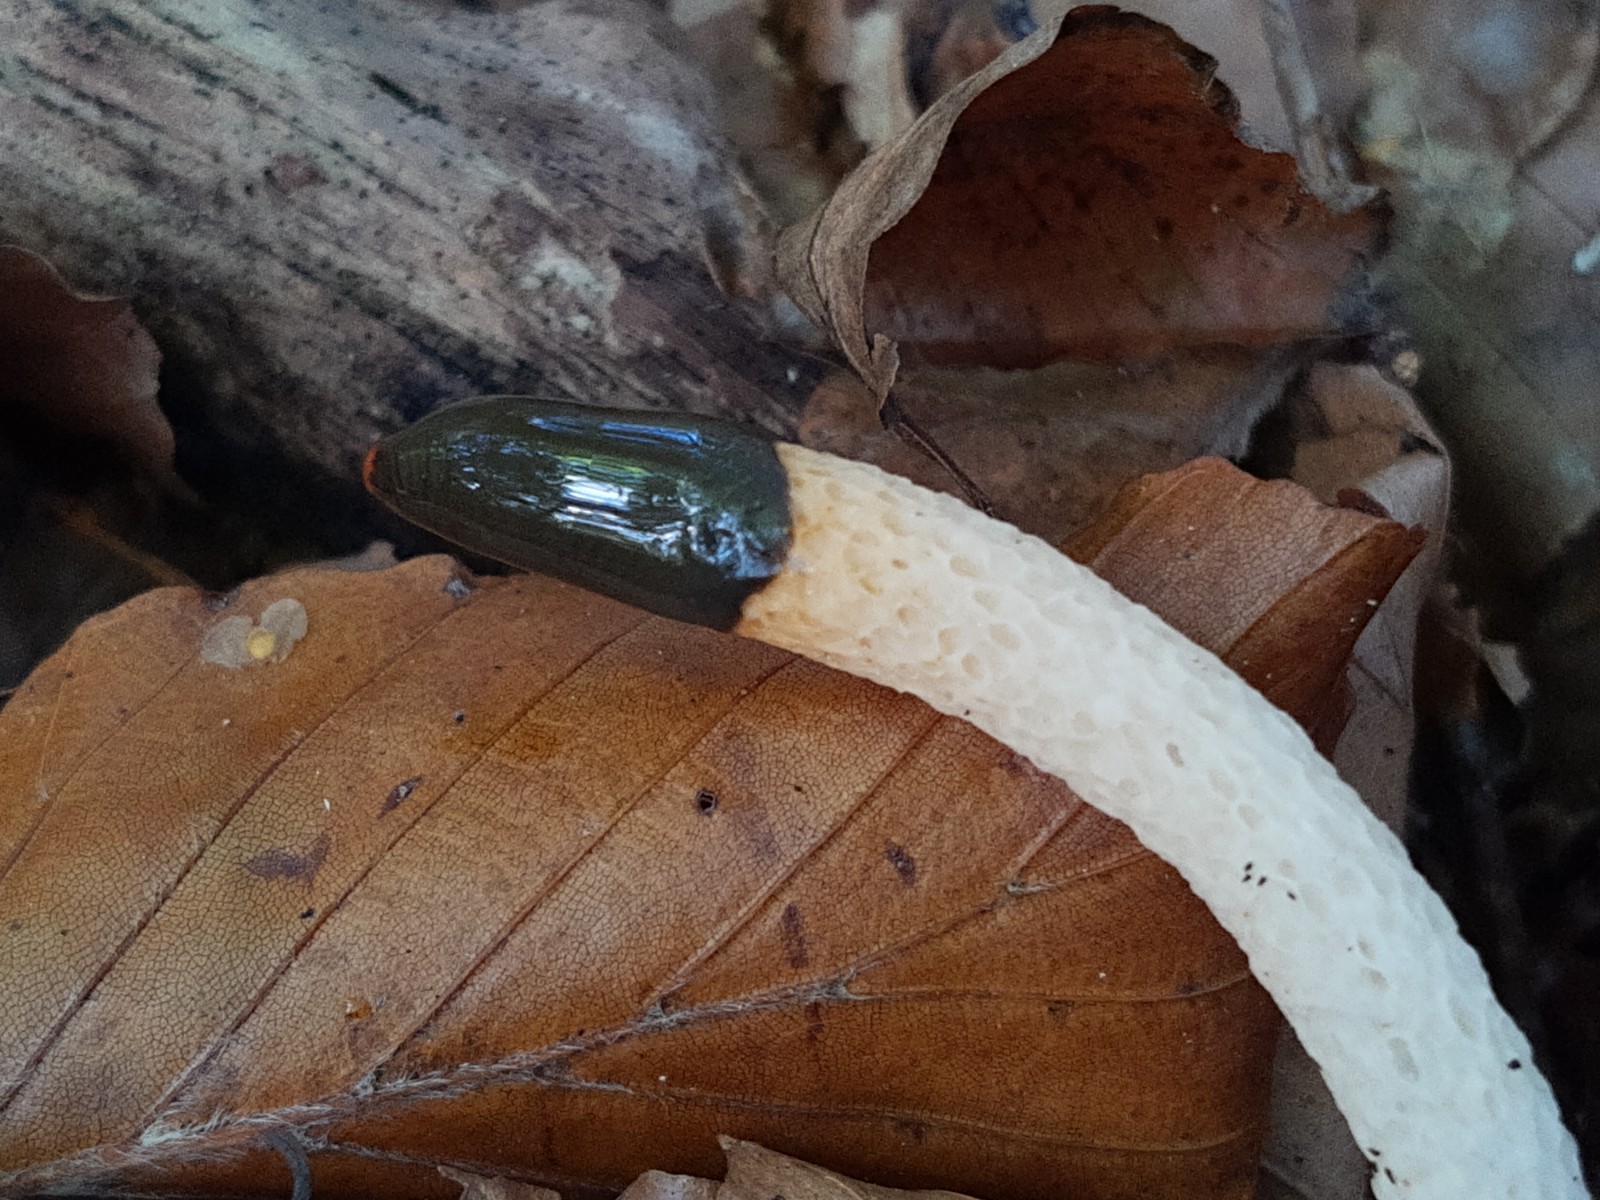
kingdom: Fungi
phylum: Basidiomycota
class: Agaricomycetes
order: Phallales
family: Phallaceae
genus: Mutinus
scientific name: Mutinus caninus
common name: hunde-stinksvamp
